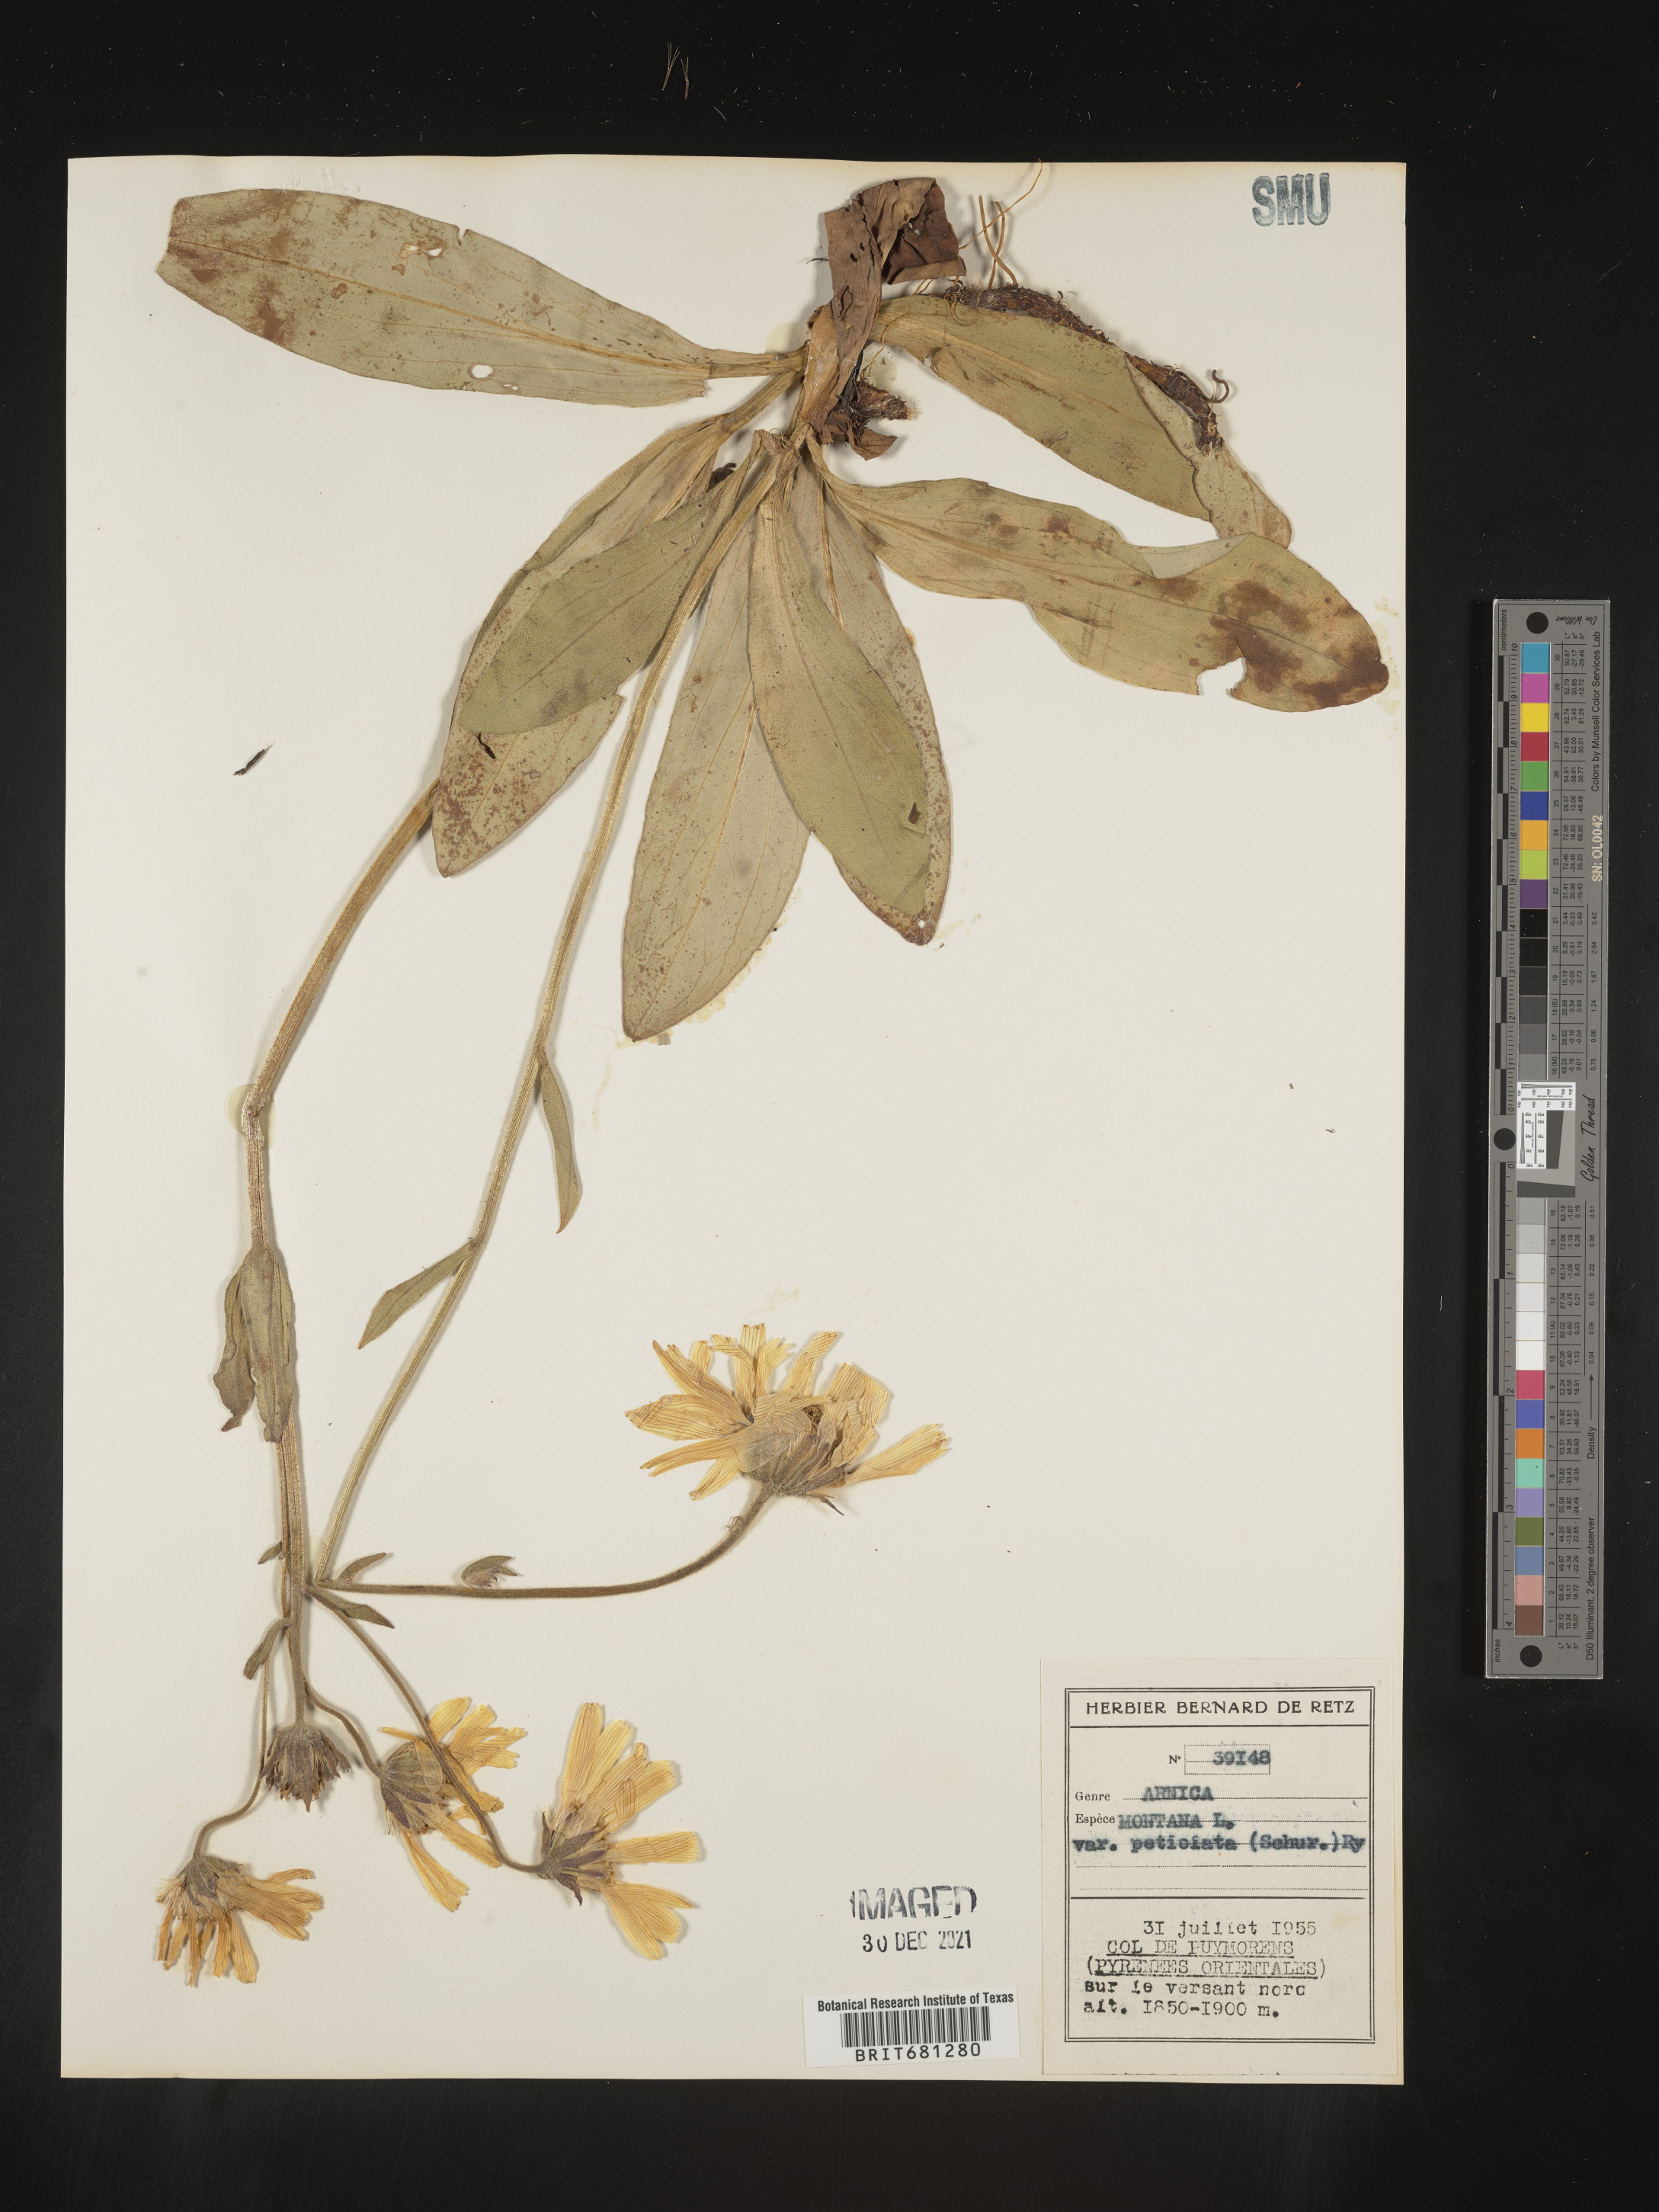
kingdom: Plantae
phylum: Tracheophyta
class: Magnoliopsida
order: Asterales
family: Asteraceae
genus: Arnica
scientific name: Arnica
